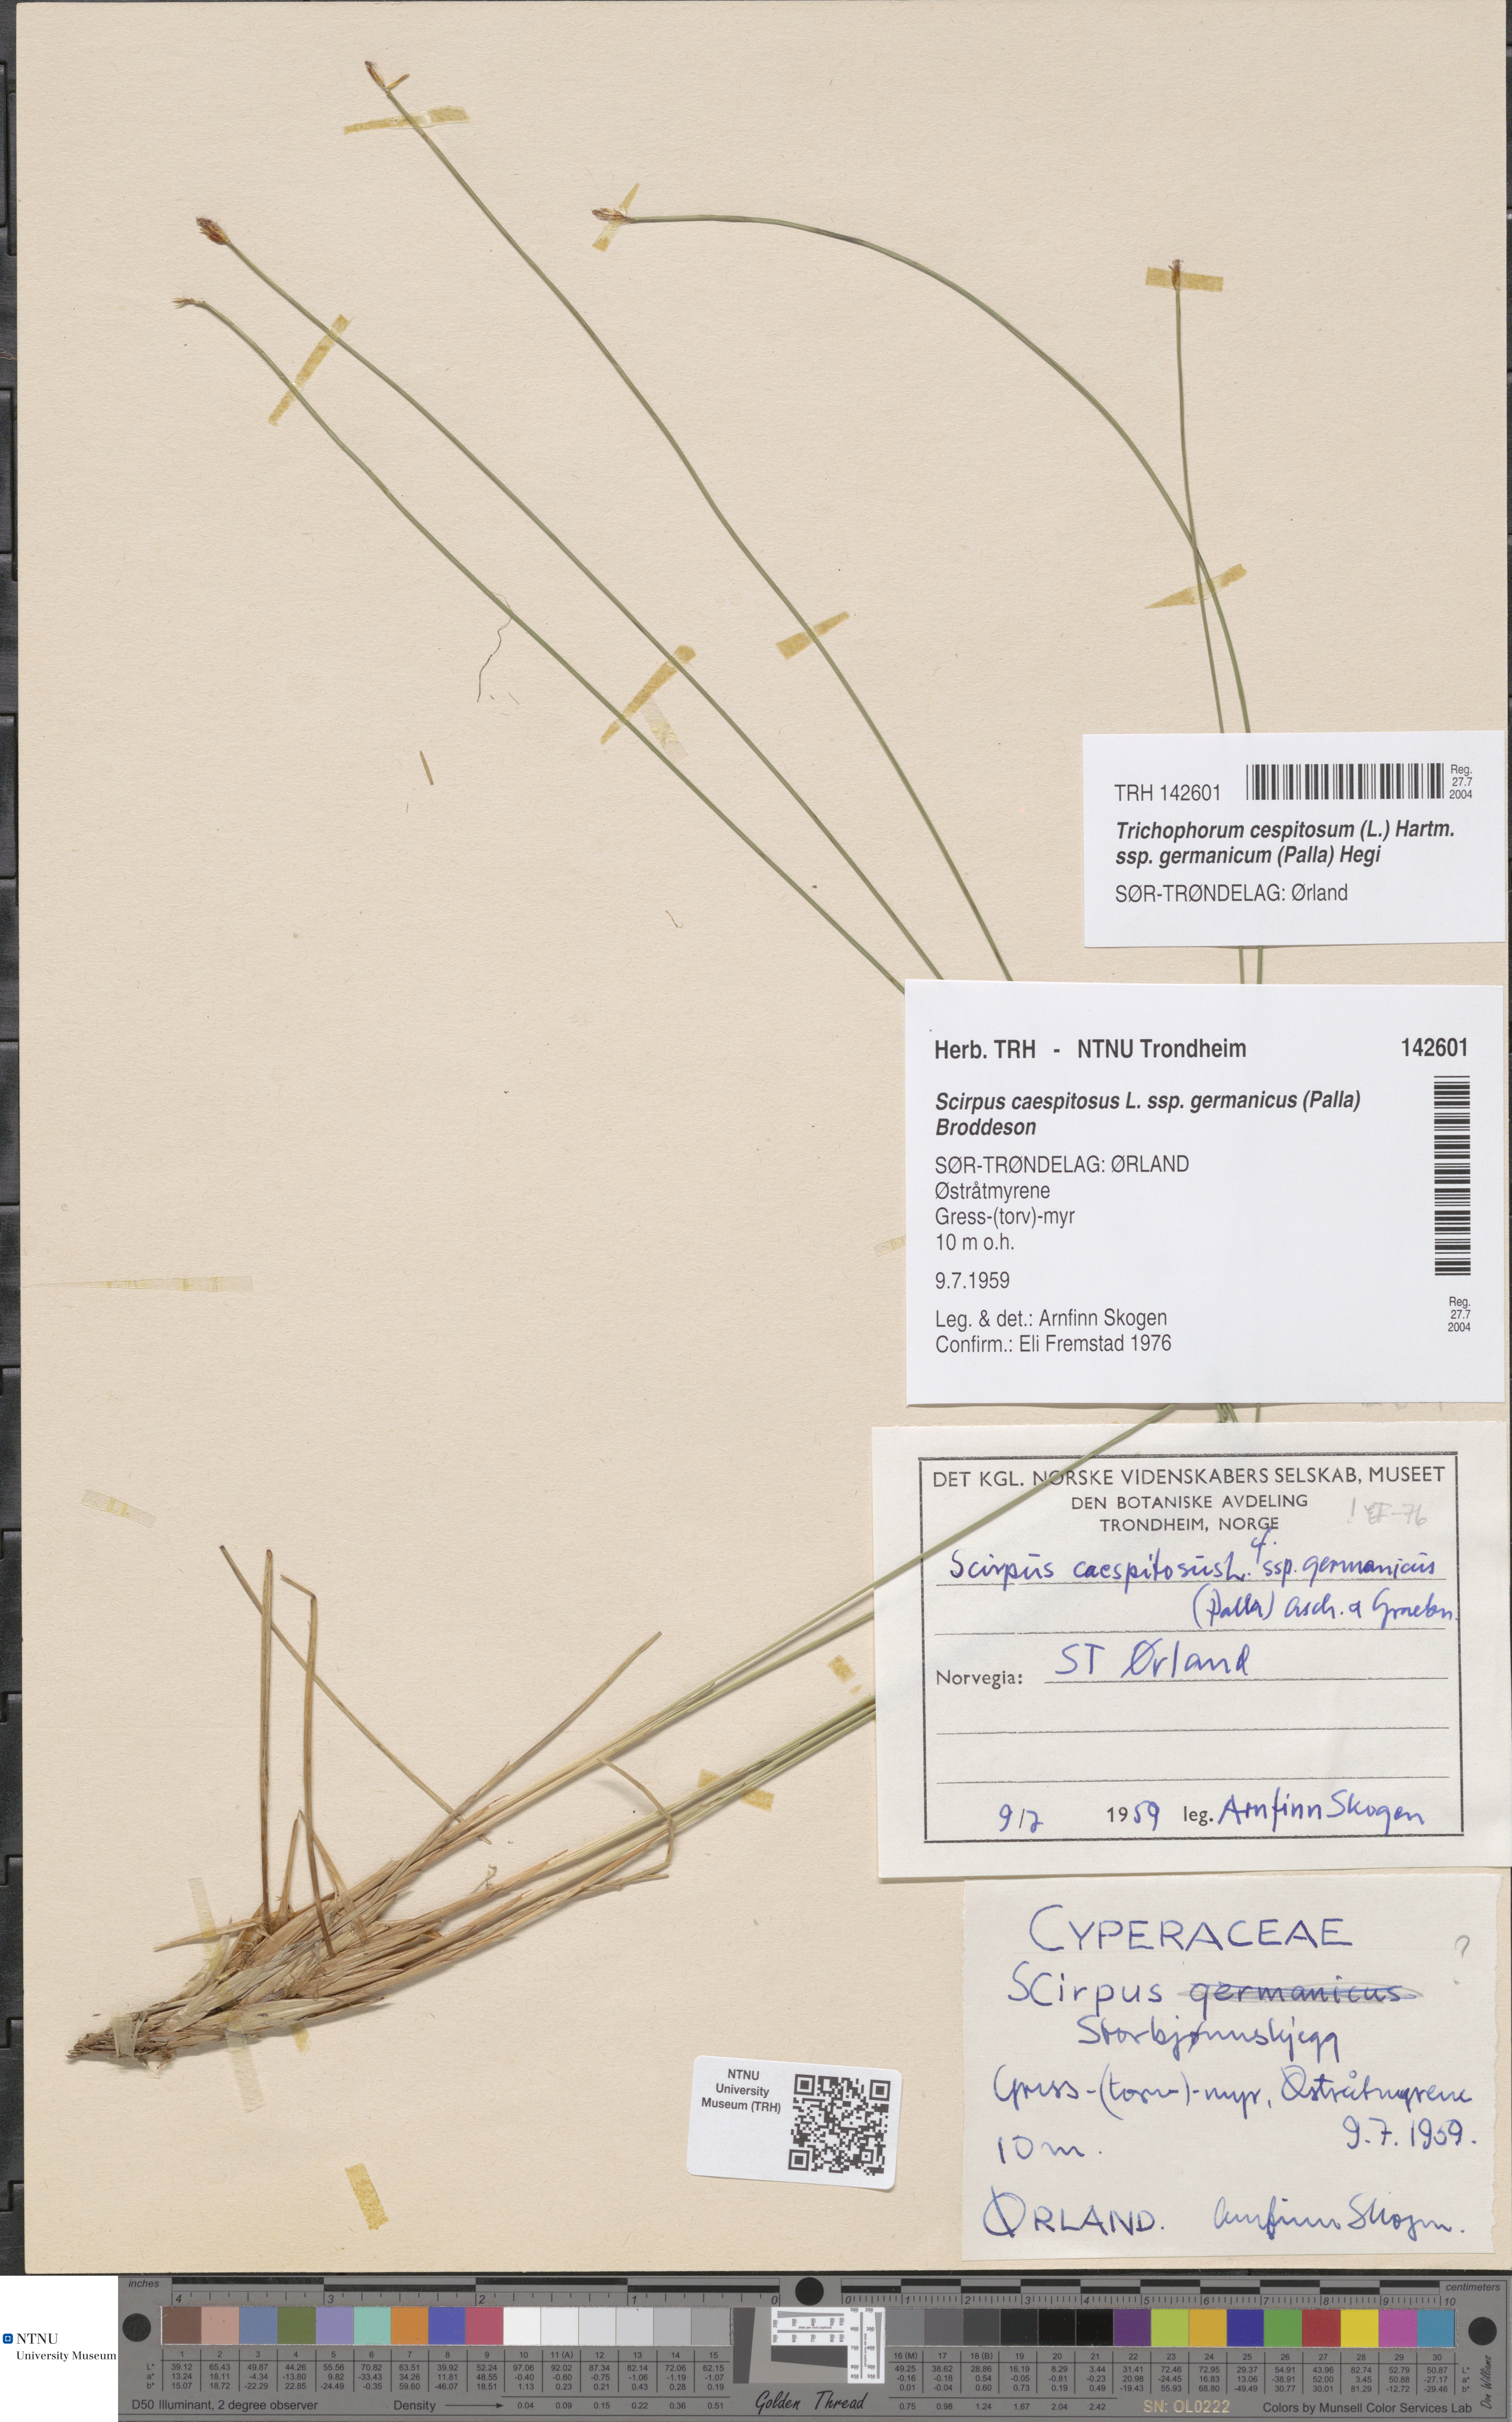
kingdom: Plantae
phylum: Tracheophyta
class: Liliopsida
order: Poales
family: Cyperaceae
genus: Trichophorum
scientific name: Trichophorum cespitosum
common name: Cespitose bulrush
